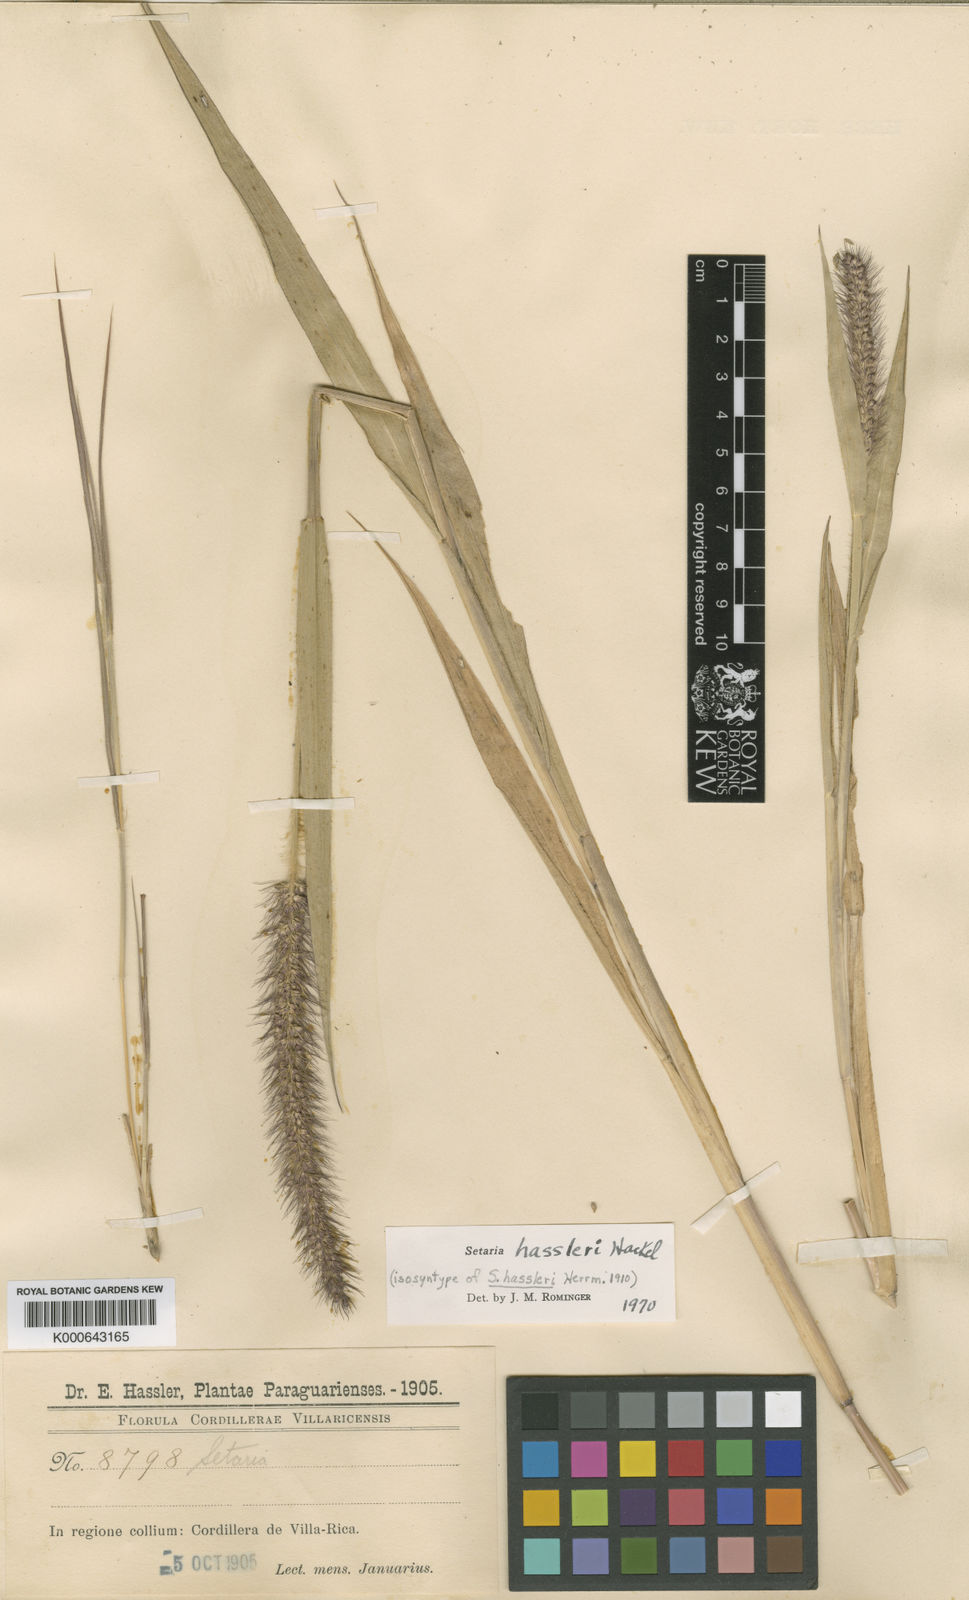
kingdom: Plantae
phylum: Tracheophyta
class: Liliopsida
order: Poales
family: Poaceae
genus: Setaria
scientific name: Setaria hassleri
